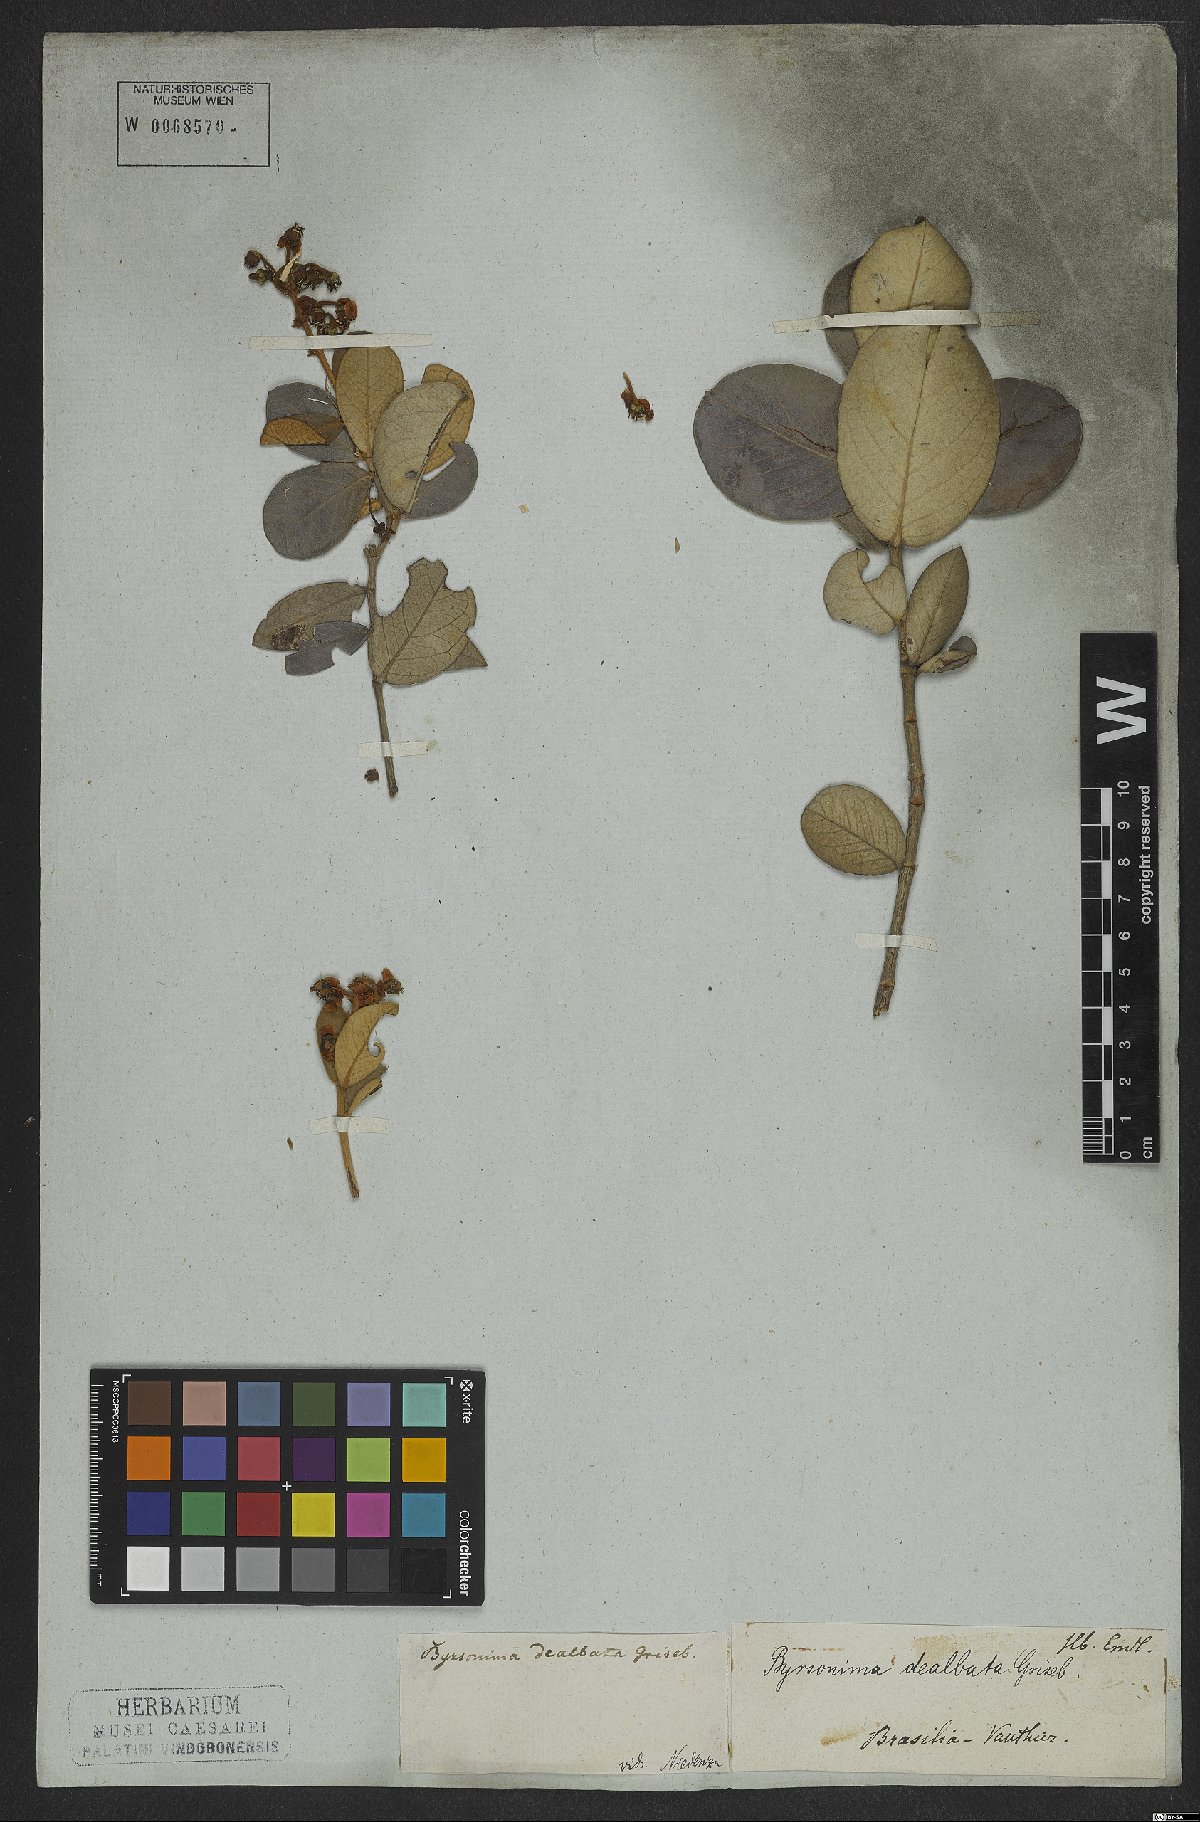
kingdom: Plantae
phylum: Tracheophyta
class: Magnoliopsida
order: Malpighiales
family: Malpighiaceae
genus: Byrsonima
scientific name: Byrsonima dealbata
